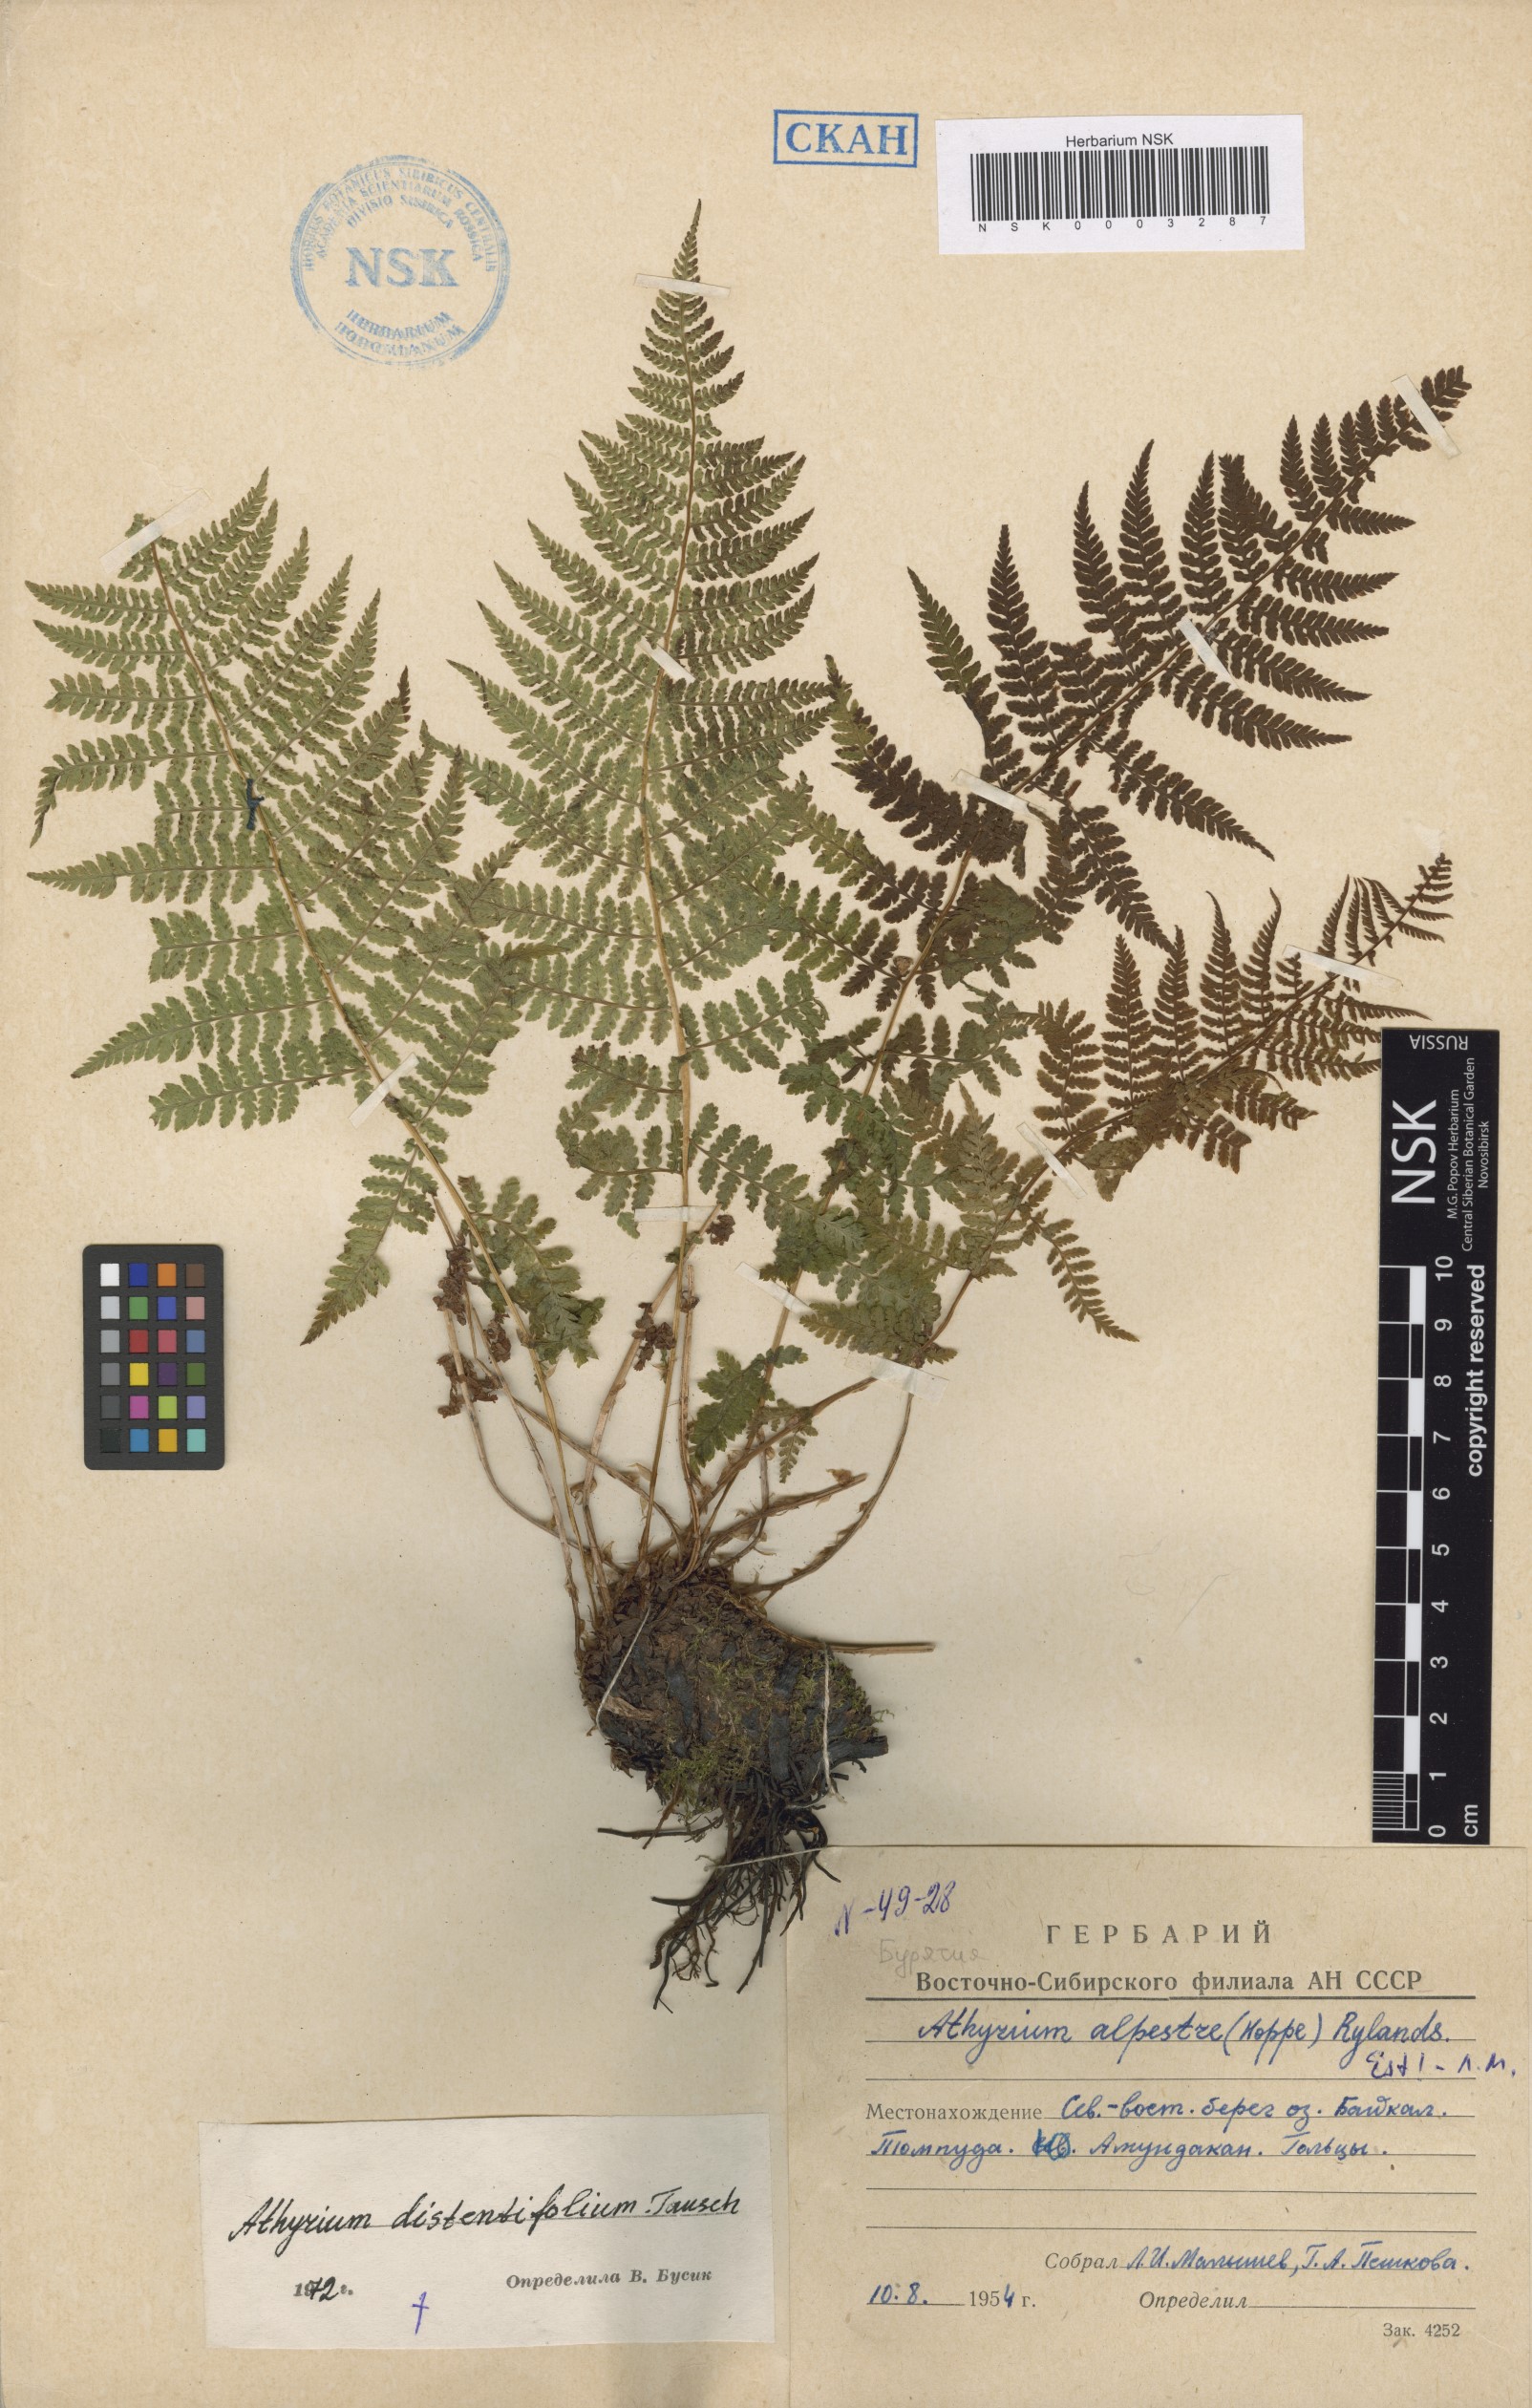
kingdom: Plantae
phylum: Tracheophyta
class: Polypodiopsida
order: Polypodiales
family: Athyriaceae
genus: Pseudathyrium
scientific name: Pseudathyrium alpestre
